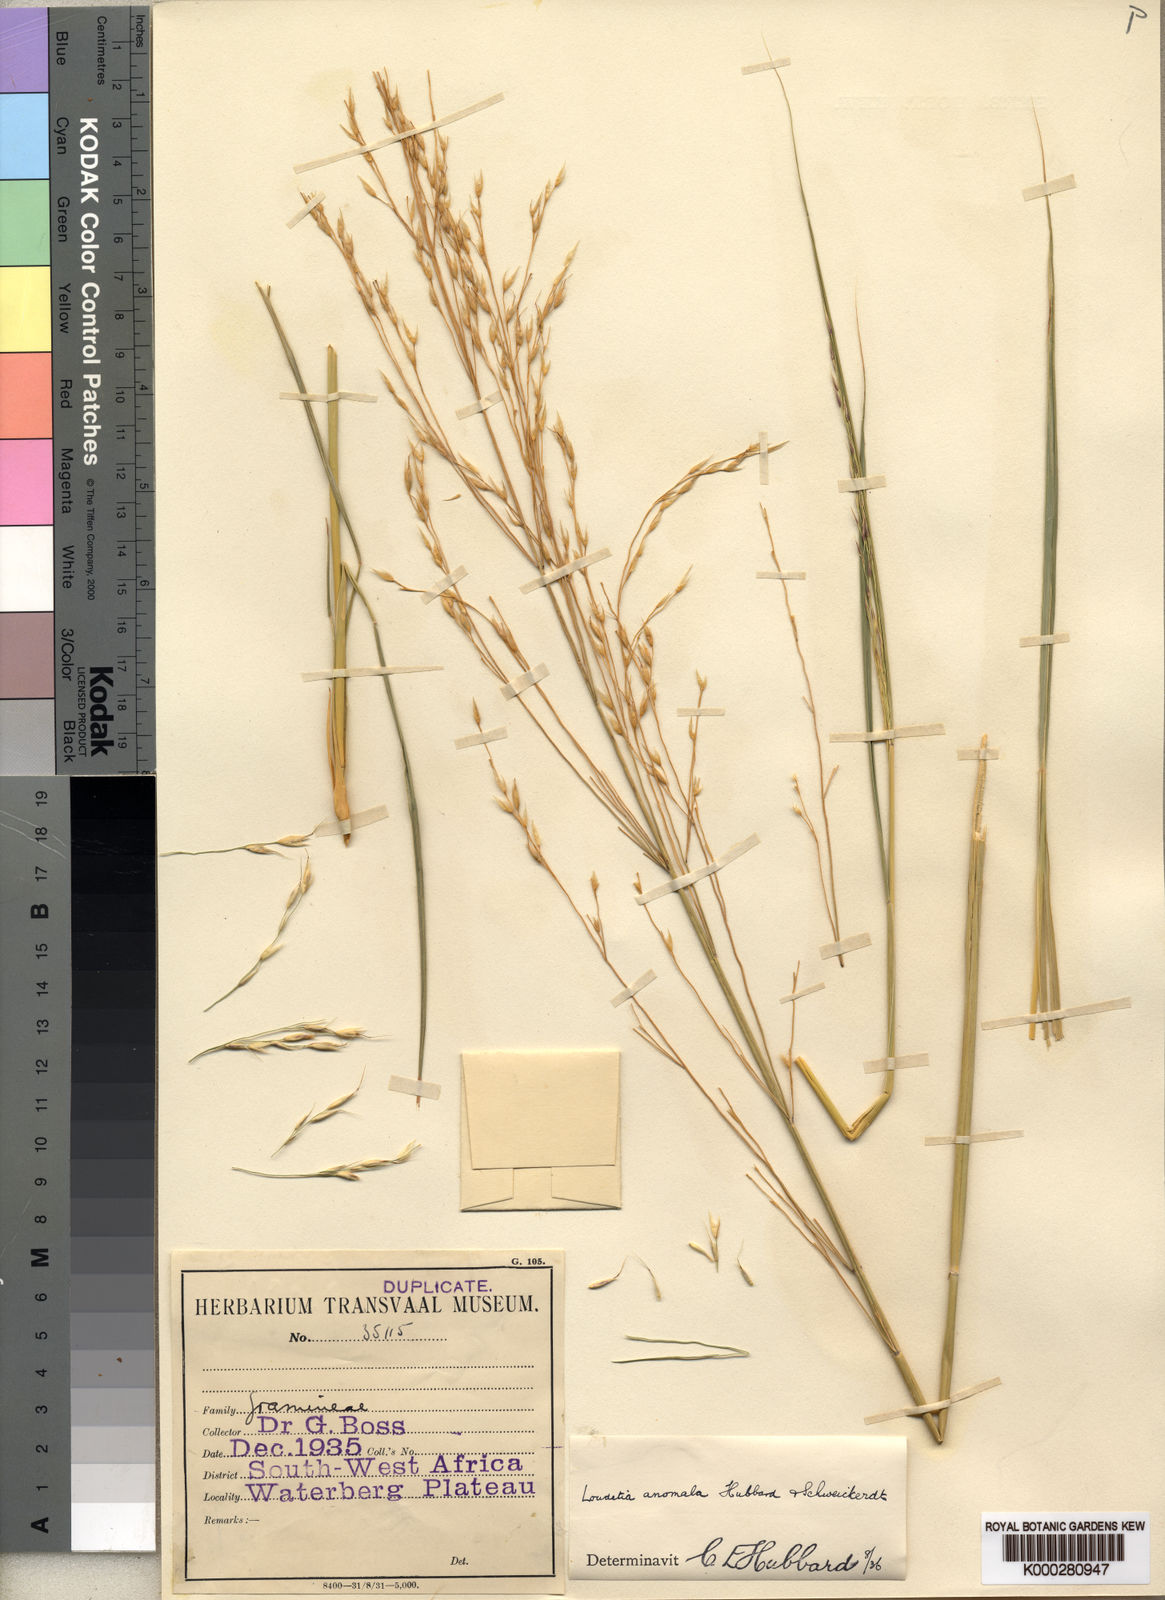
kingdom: Plantae
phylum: Tracheophyta
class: Liliopsida
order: Poales
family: Poaceae
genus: Danthoniopsis
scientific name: Danthoniopsis ramosa
